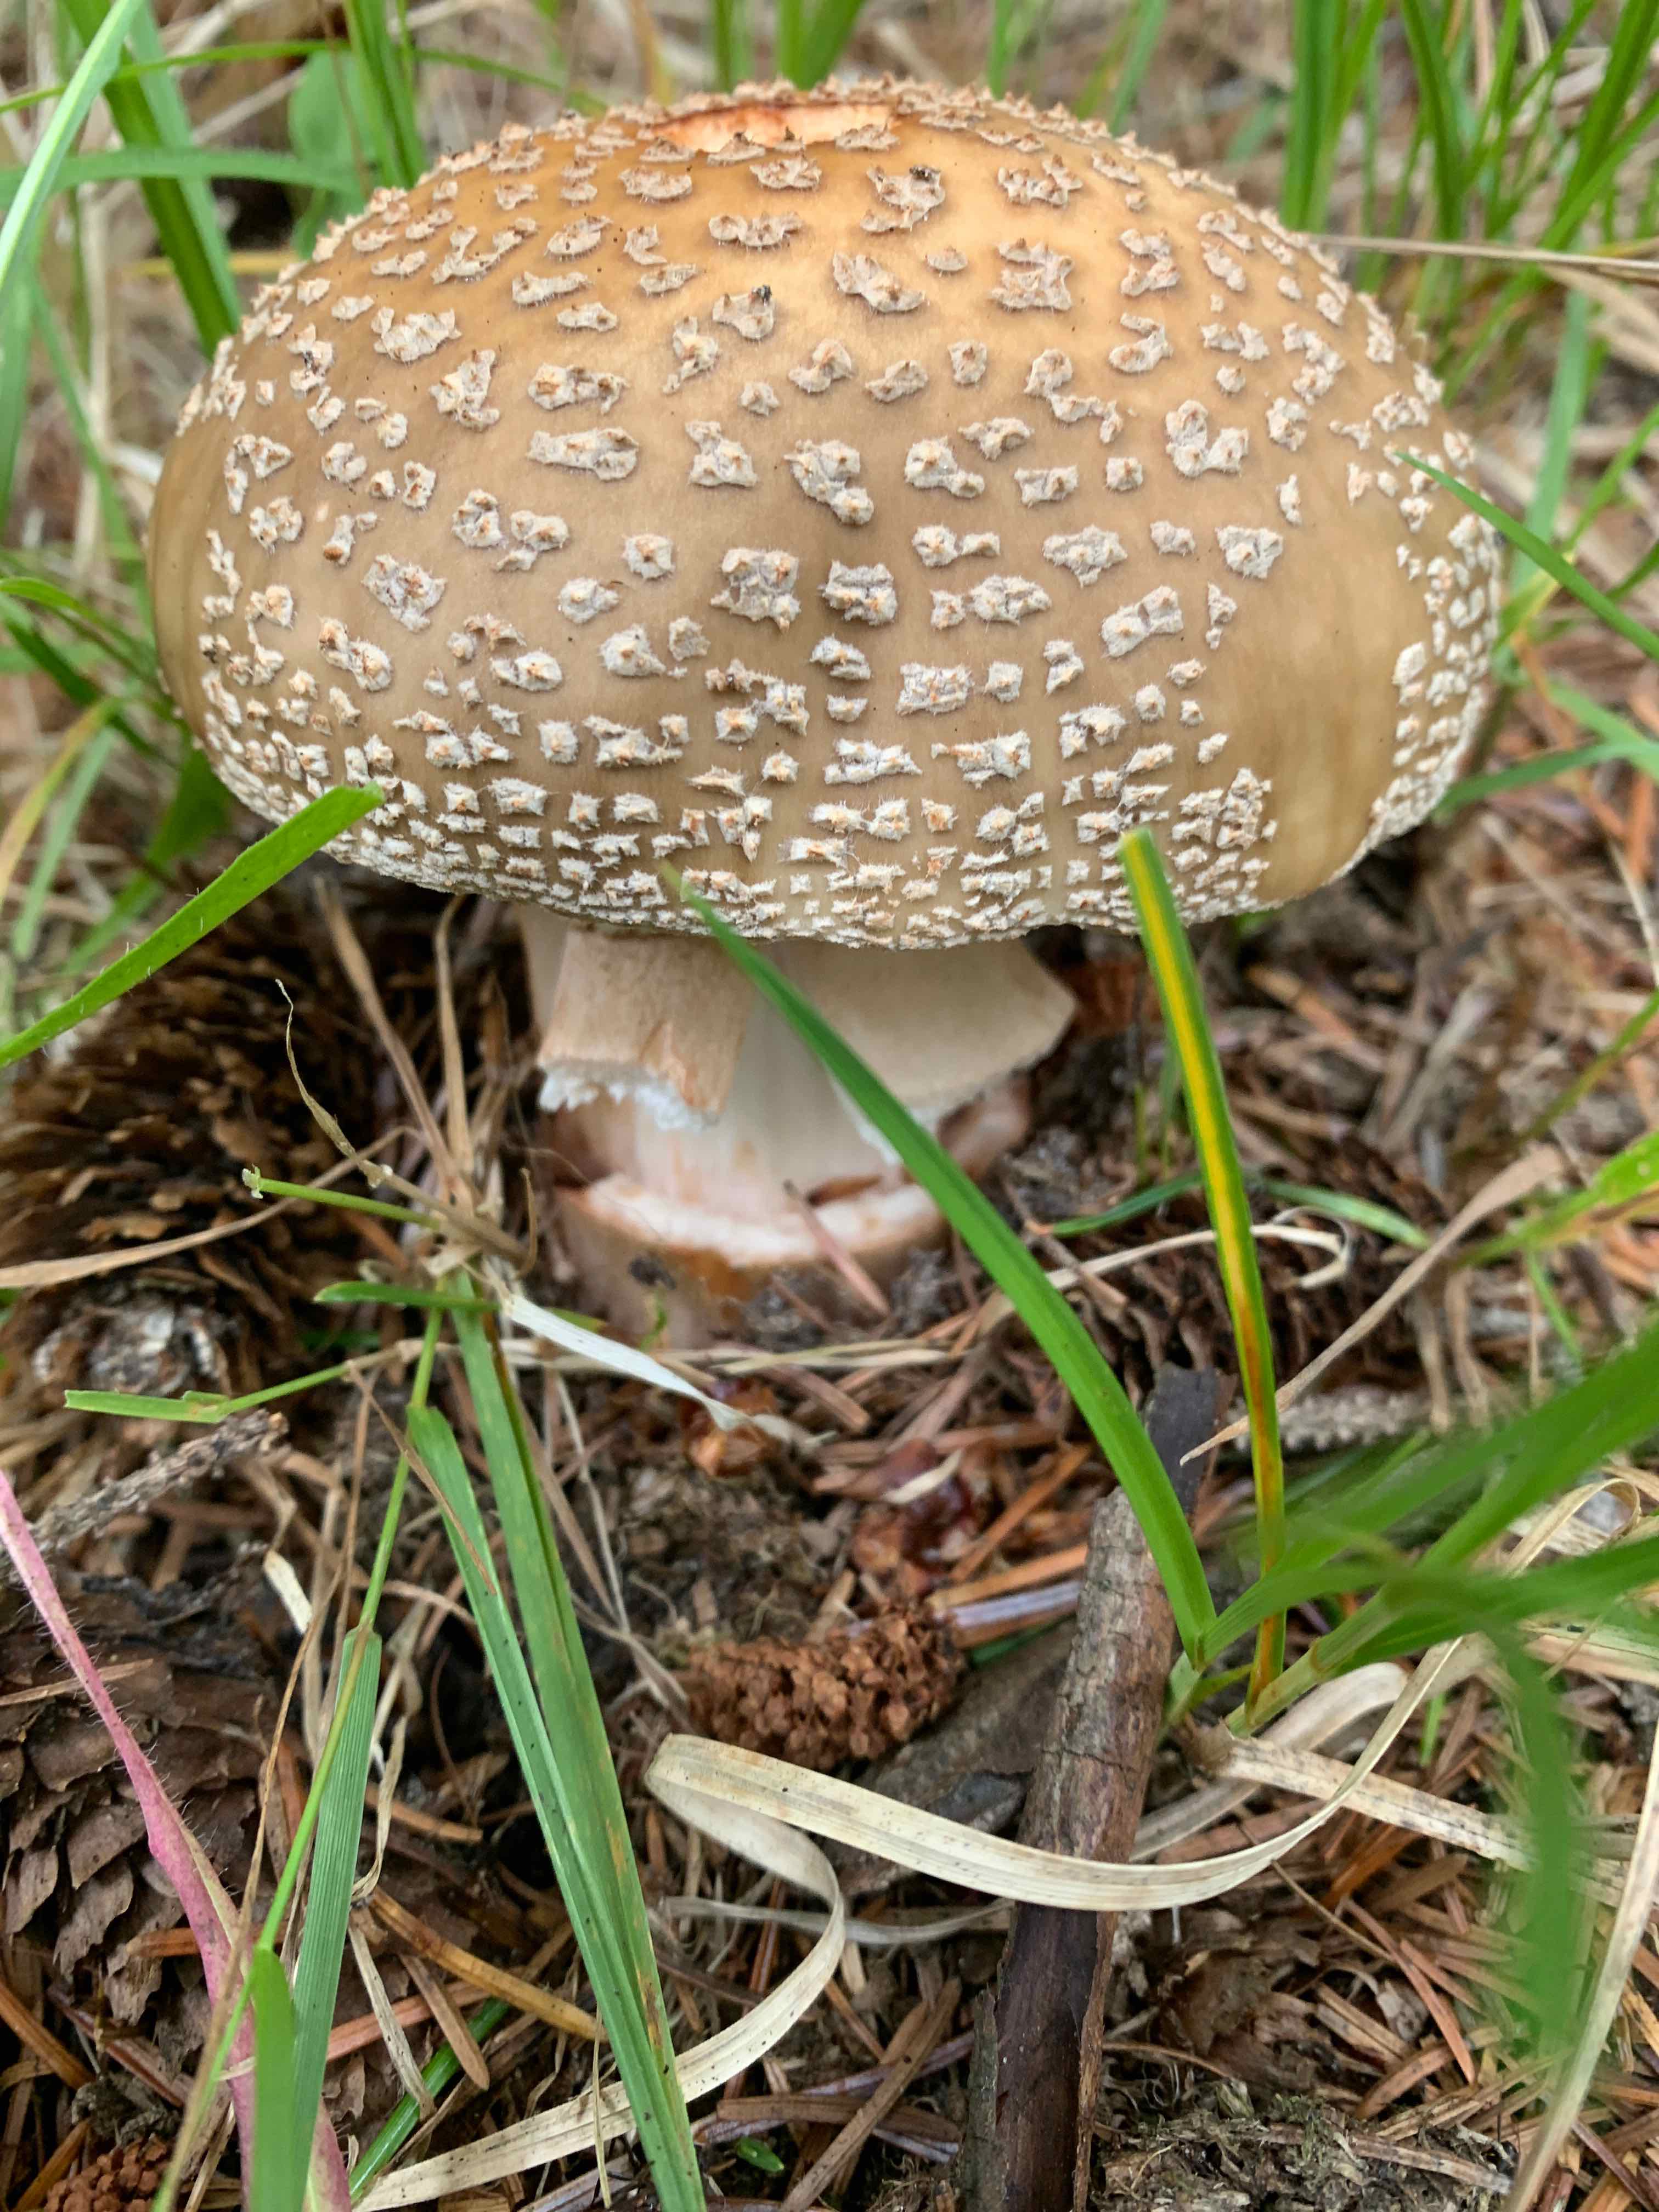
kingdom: Fungi
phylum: Basidiomycota
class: Agaricomycetes
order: Agaricales
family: Amanitaceae
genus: Amanita
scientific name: Amanita rubescens
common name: rødmende fluesvamp
